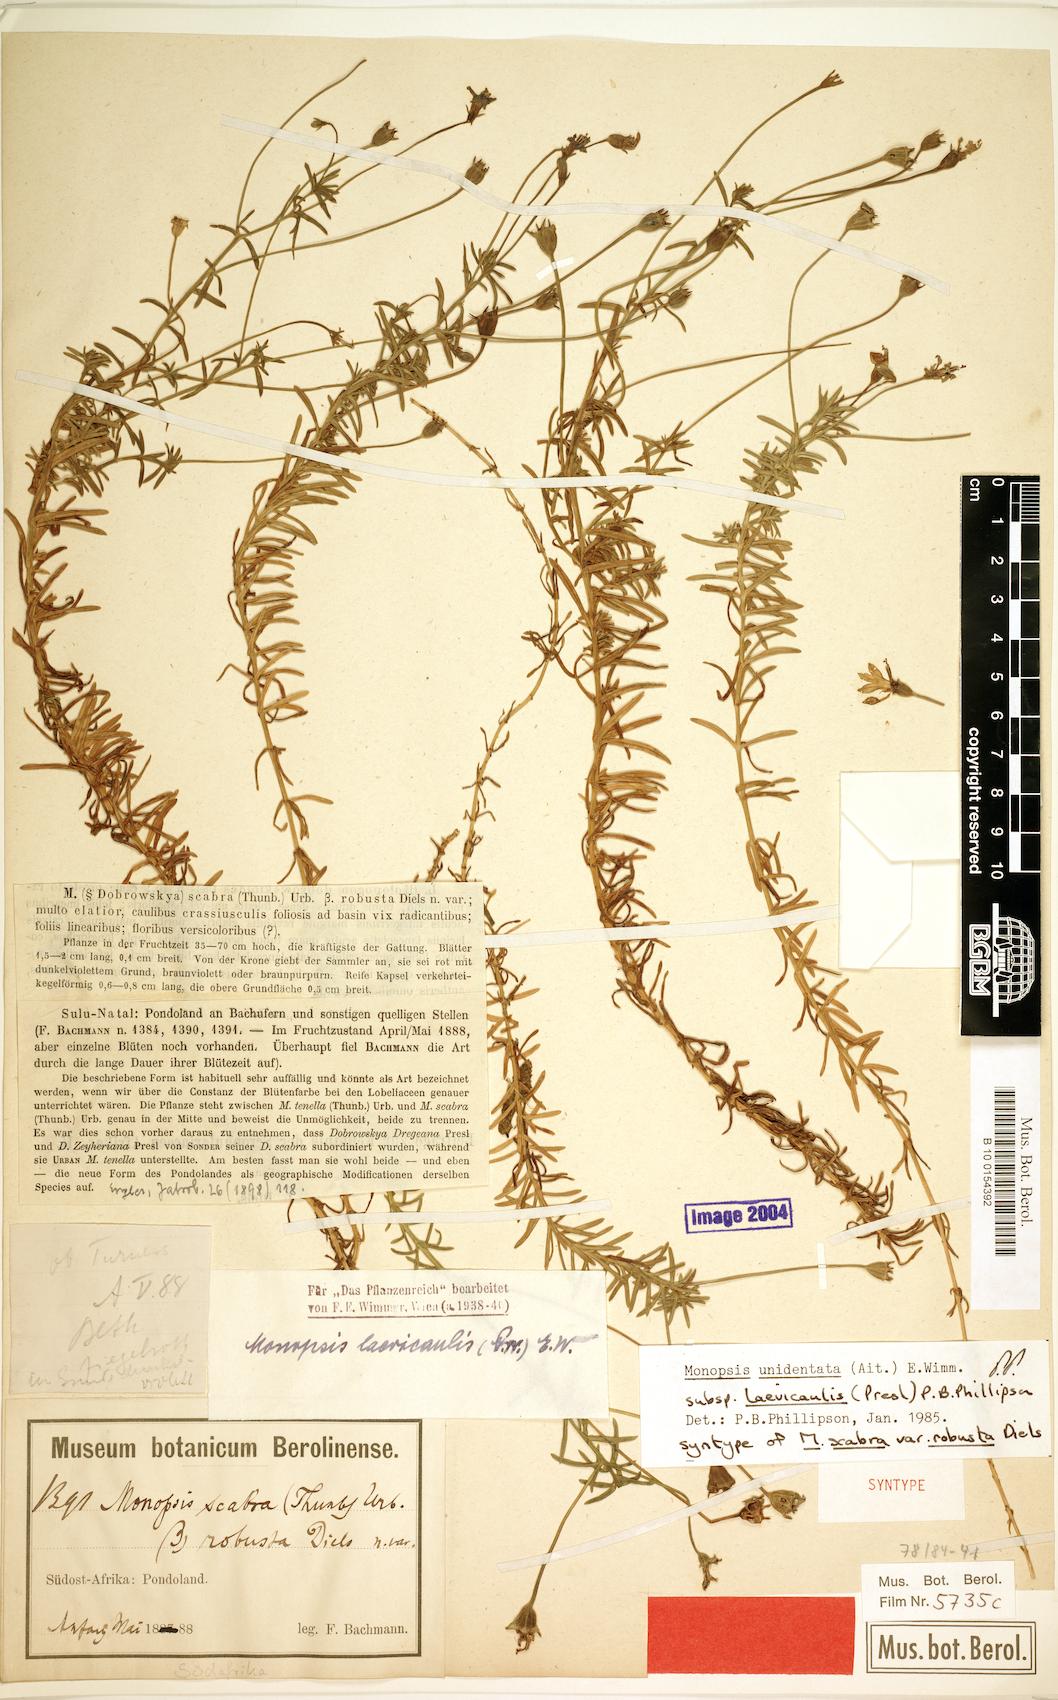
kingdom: Plantae
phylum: Tracheophyta
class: Magnoliopsida
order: Asterales
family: Campanulaceae
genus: Monopsis
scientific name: Monopsis unidentata
